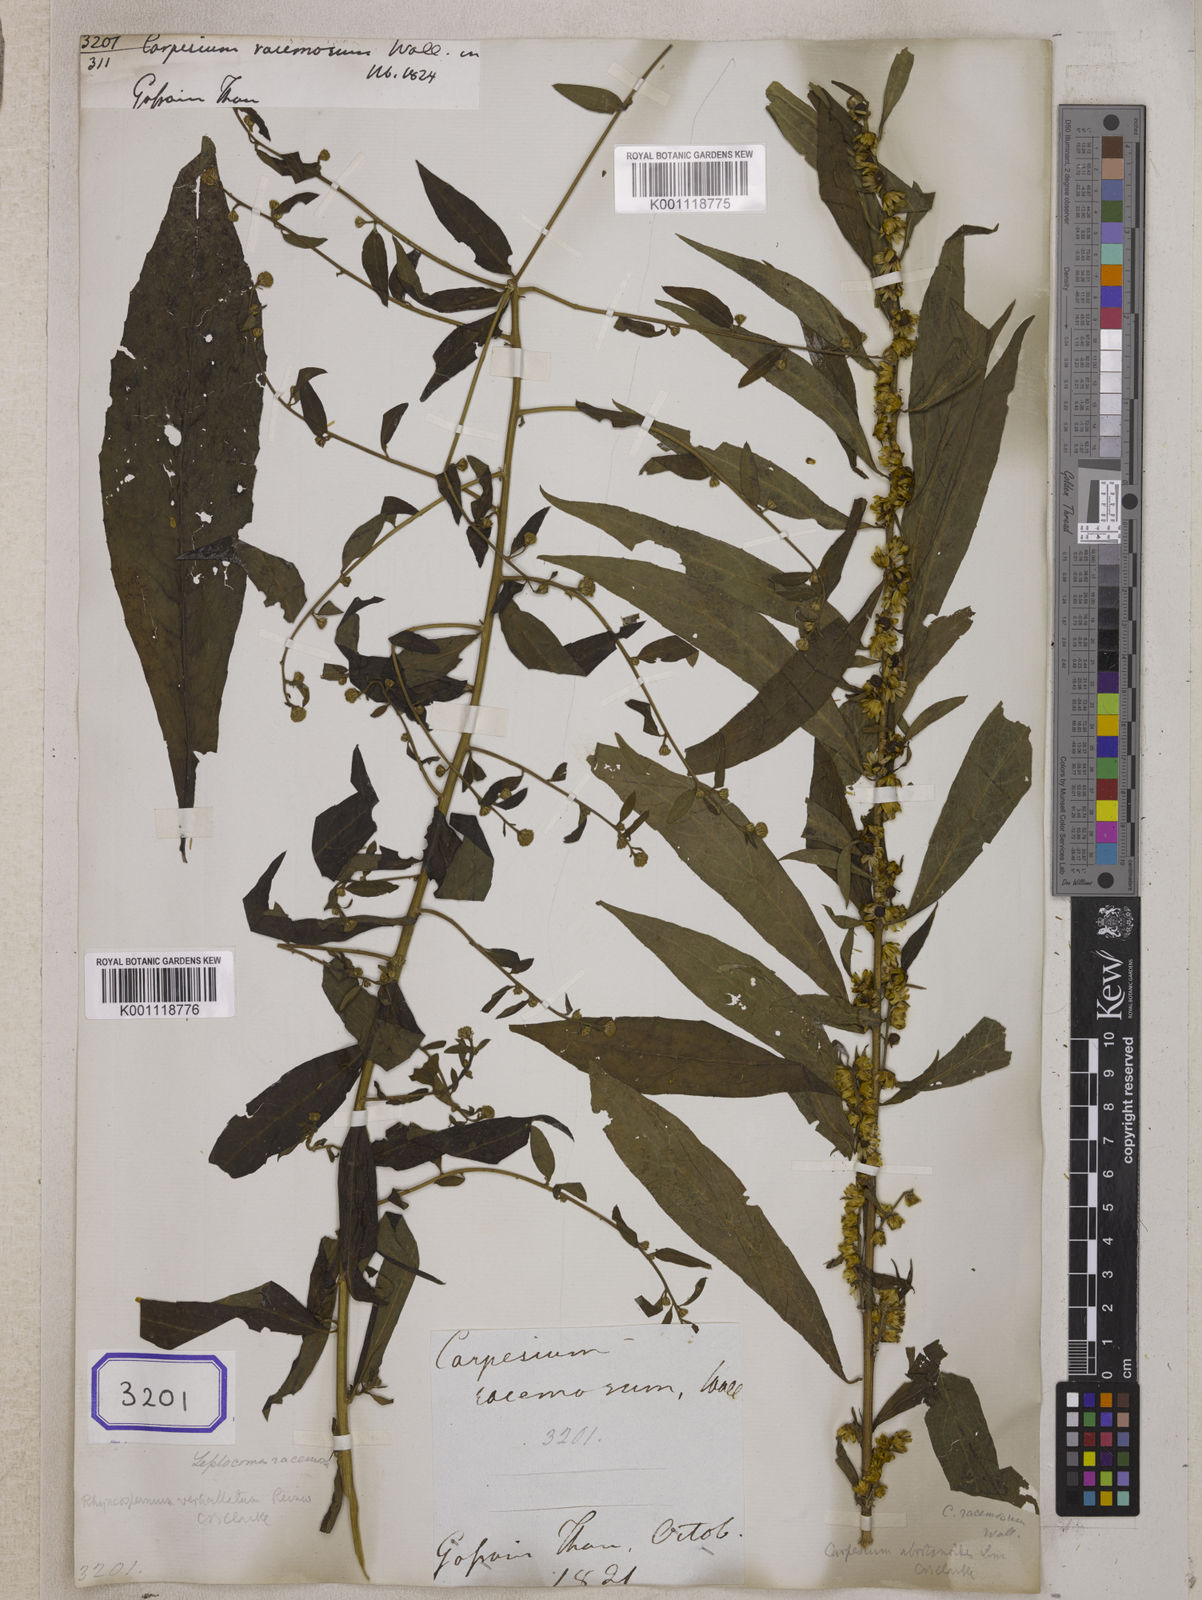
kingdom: Plantae
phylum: Tracheophyta
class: Magnoliopsida
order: Asterales
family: Asteraceae
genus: Carpesium
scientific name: Carpesium abrotanoides
